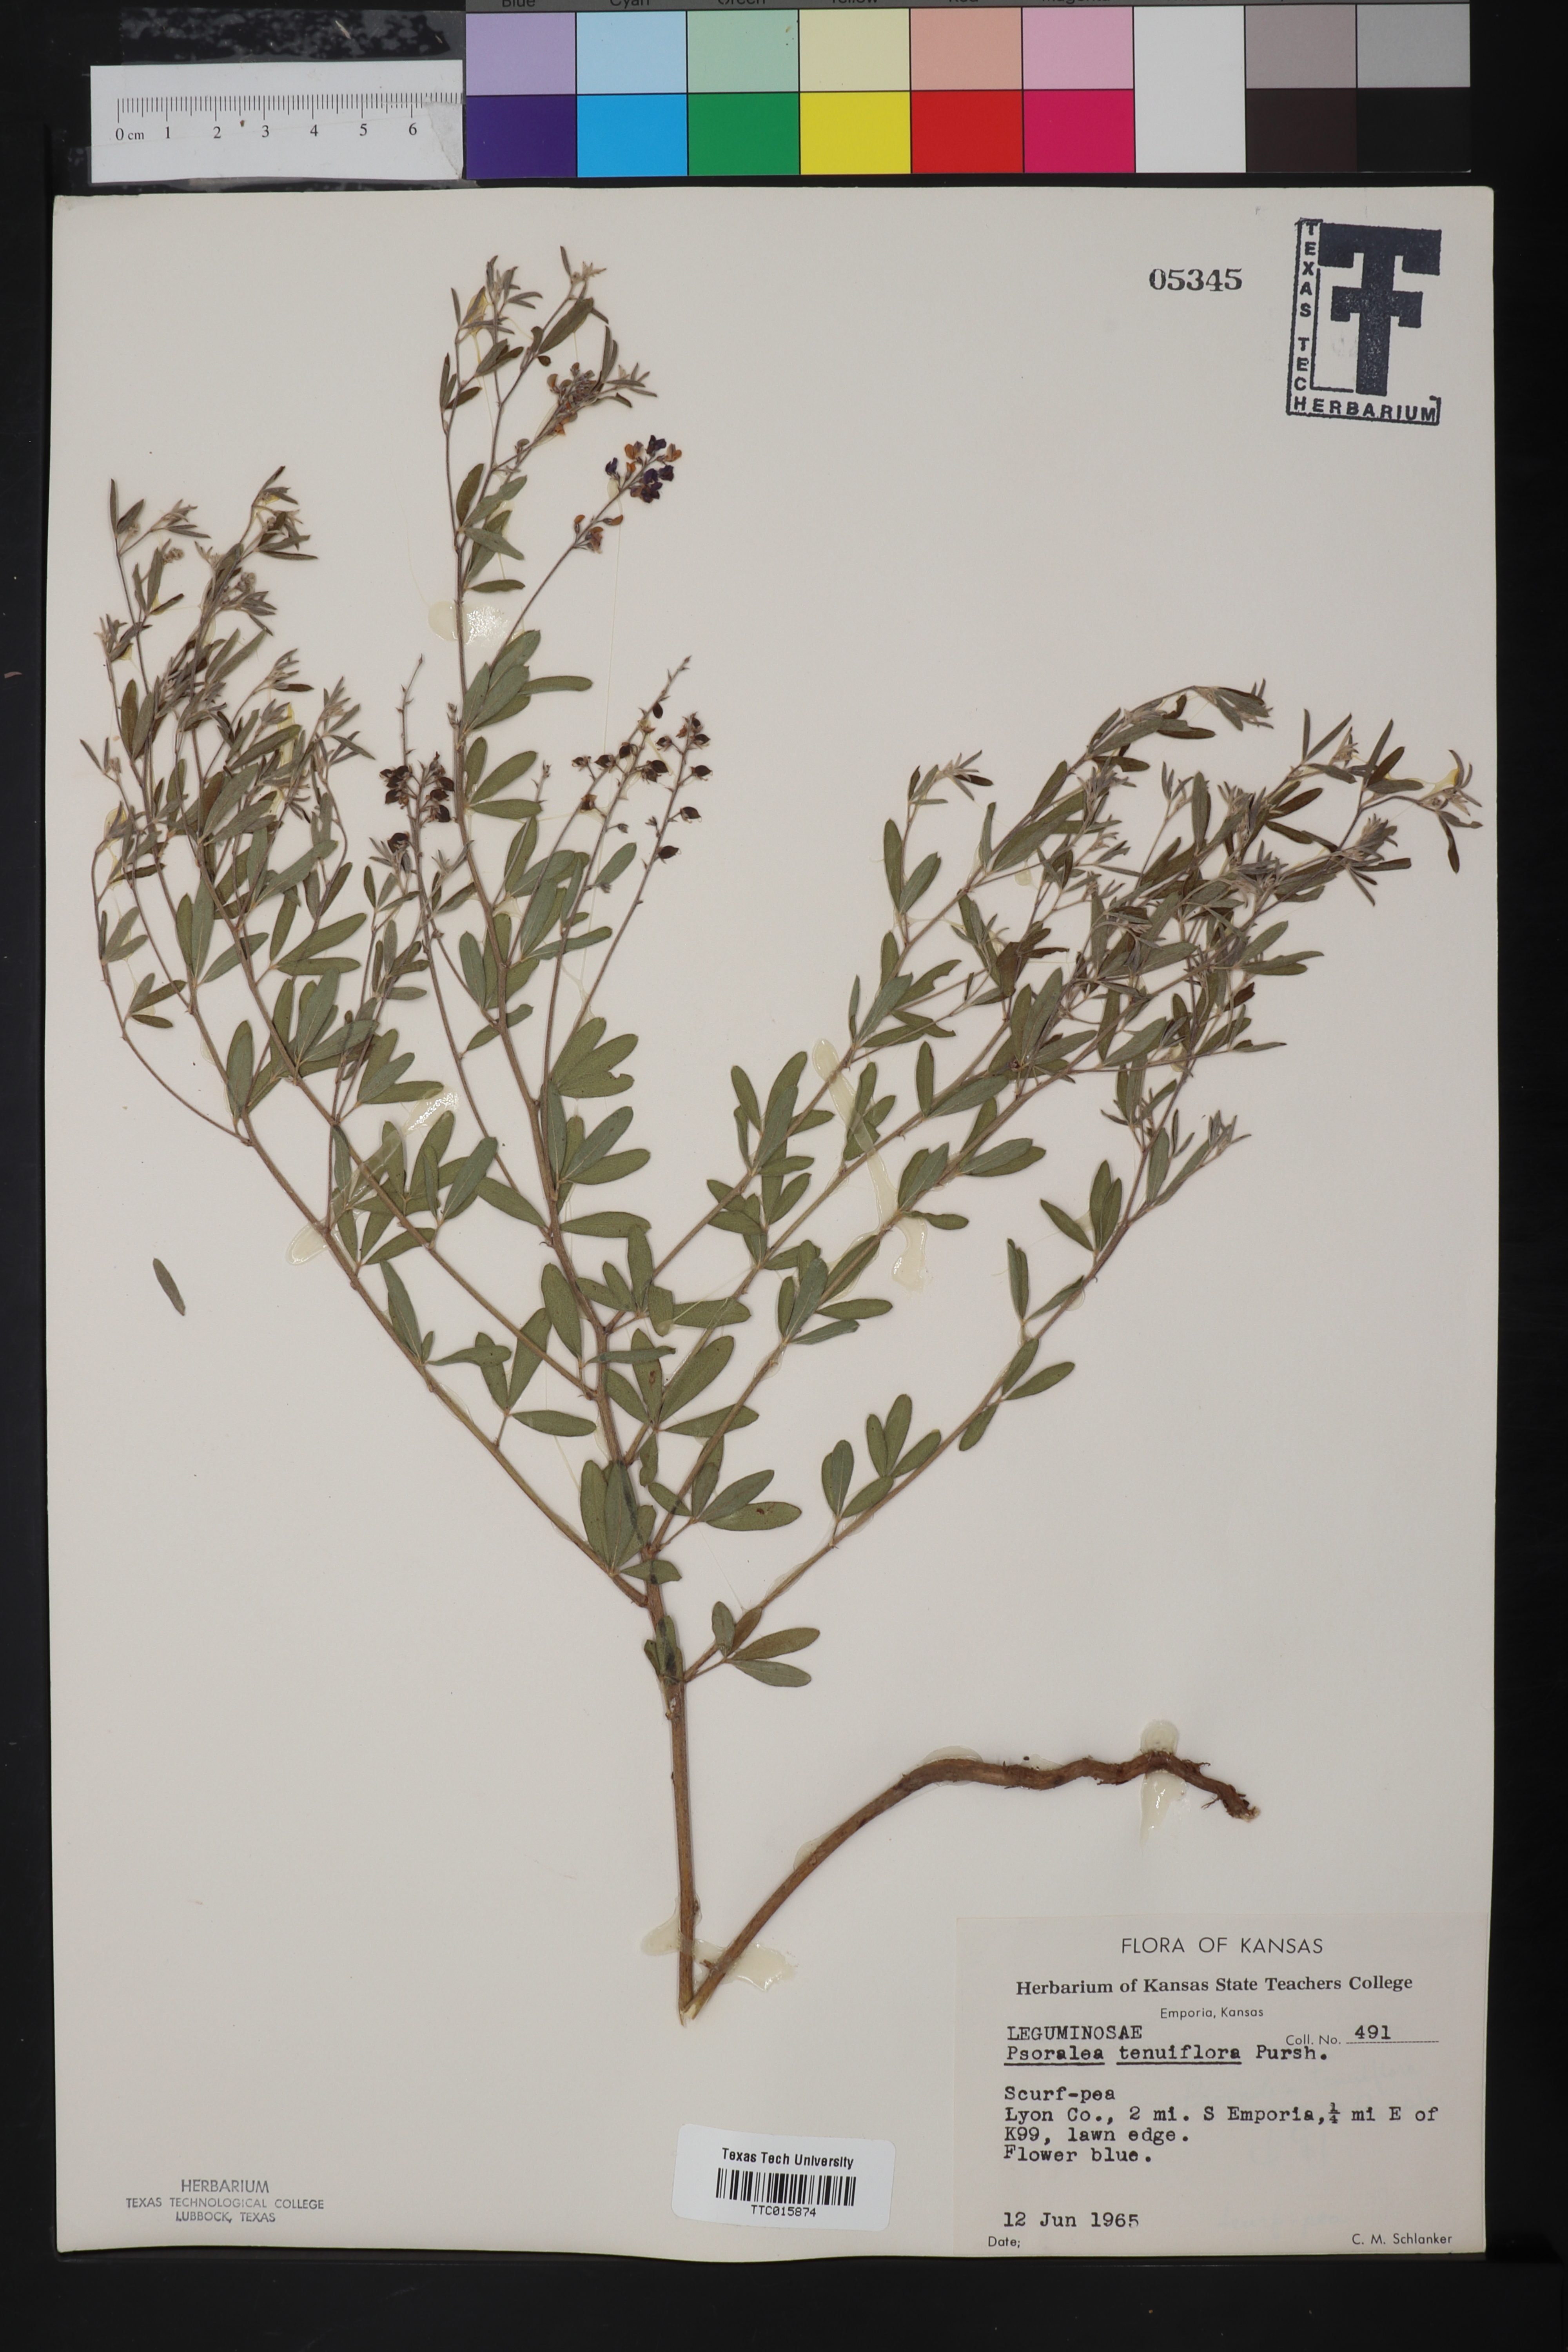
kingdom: Plantae
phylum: Tracheophyta
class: Magnoliopsida
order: Fabales
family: Fabaceae
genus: Pediomelum
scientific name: Pediomelum tenuiflorum
